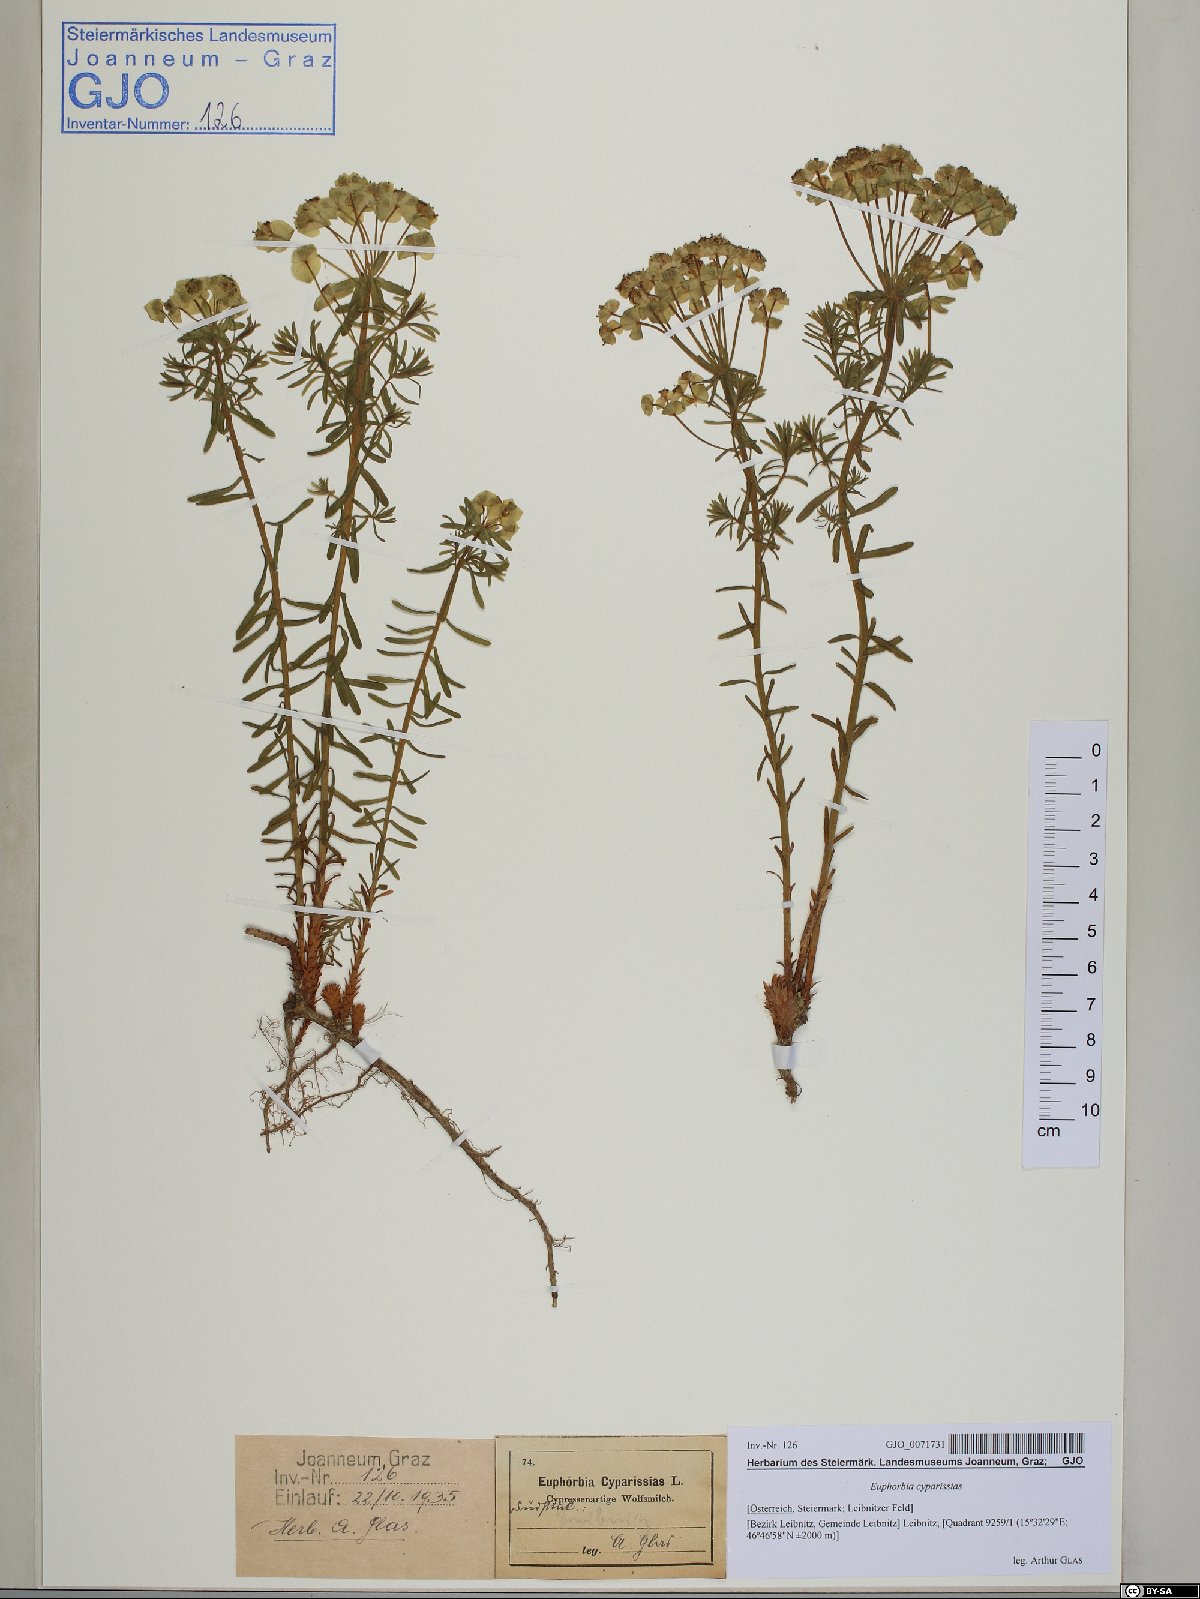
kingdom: Plantae
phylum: Tracheophyta
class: Magnoliopsida
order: Malpighiales
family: Euphorbiaceae
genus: Euphorbia
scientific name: Euphorbia cyparissias
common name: Cypress spurge
